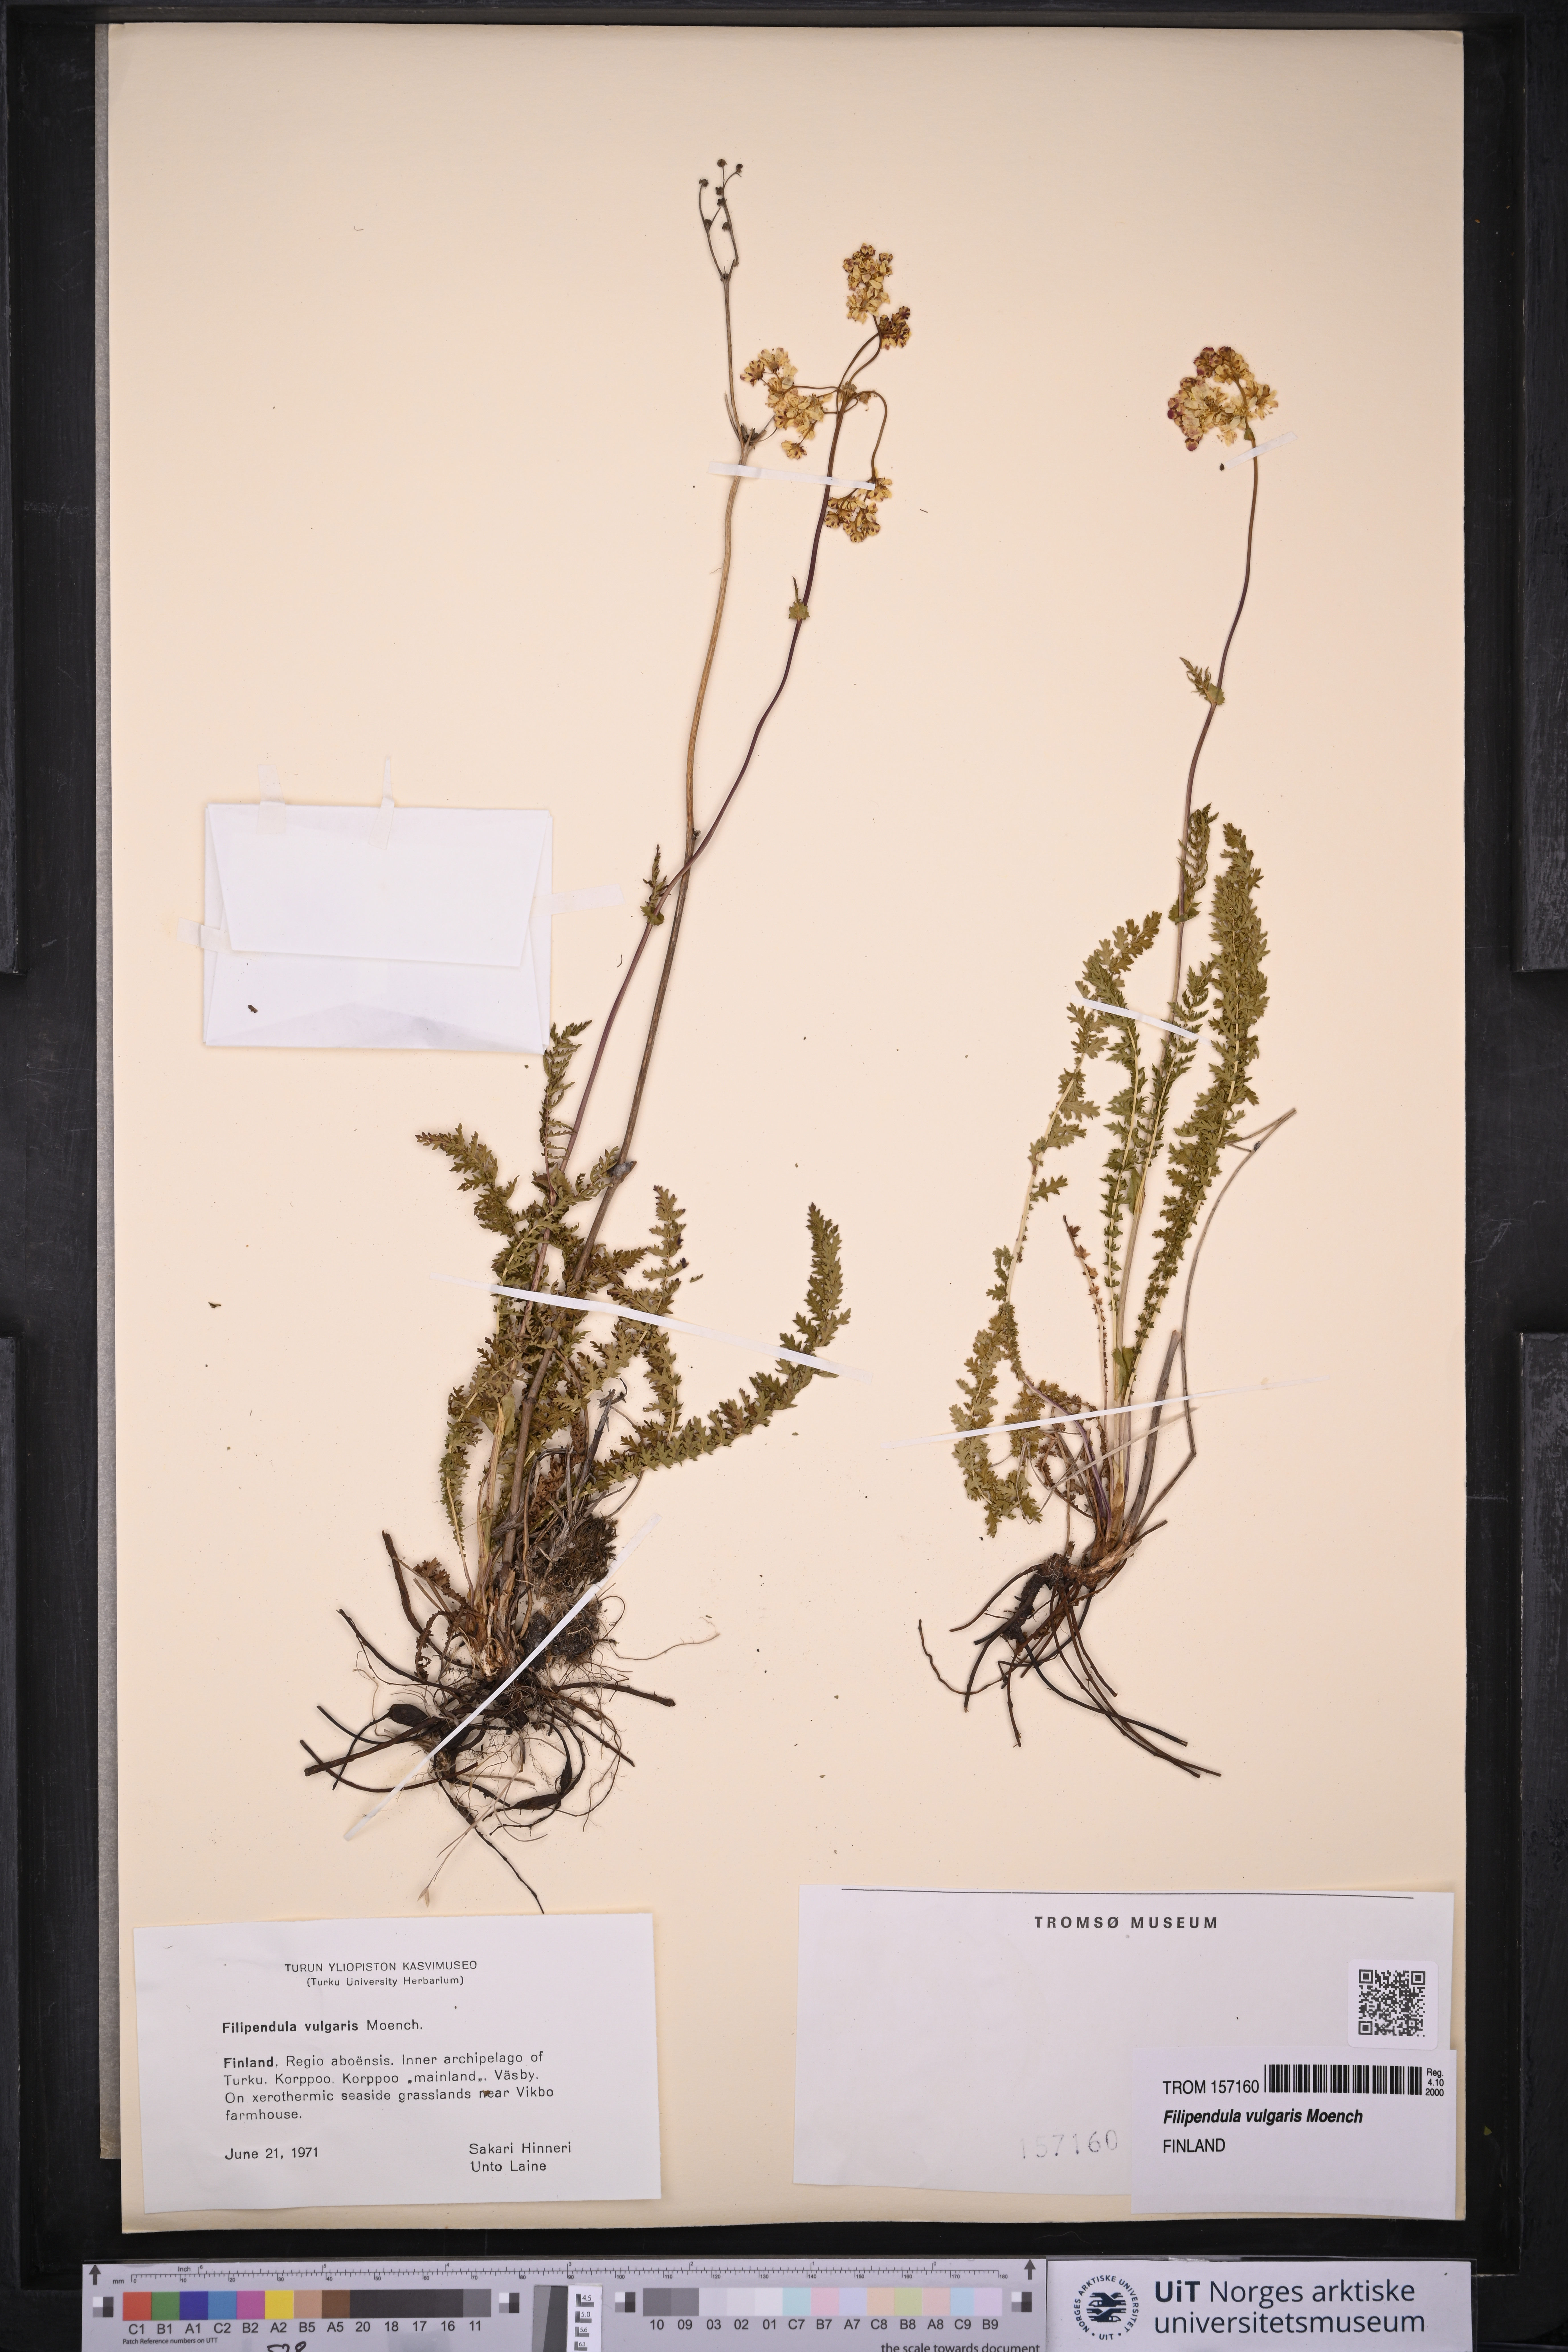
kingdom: Plantae
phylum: Tracheophyta
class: Magnoliopsida
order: Rosales
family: Rosaceae
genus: Filipendula
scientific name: Filipendula vulgaris
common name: Dropwort
